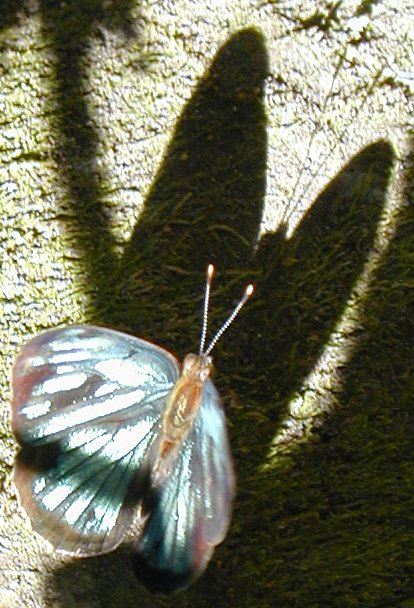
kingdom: Animalia
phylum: Arthropoda
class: Insecta
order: Lepidoptera
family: Nymphalidae
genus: Dynamine
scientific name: Dynamine mylitta
